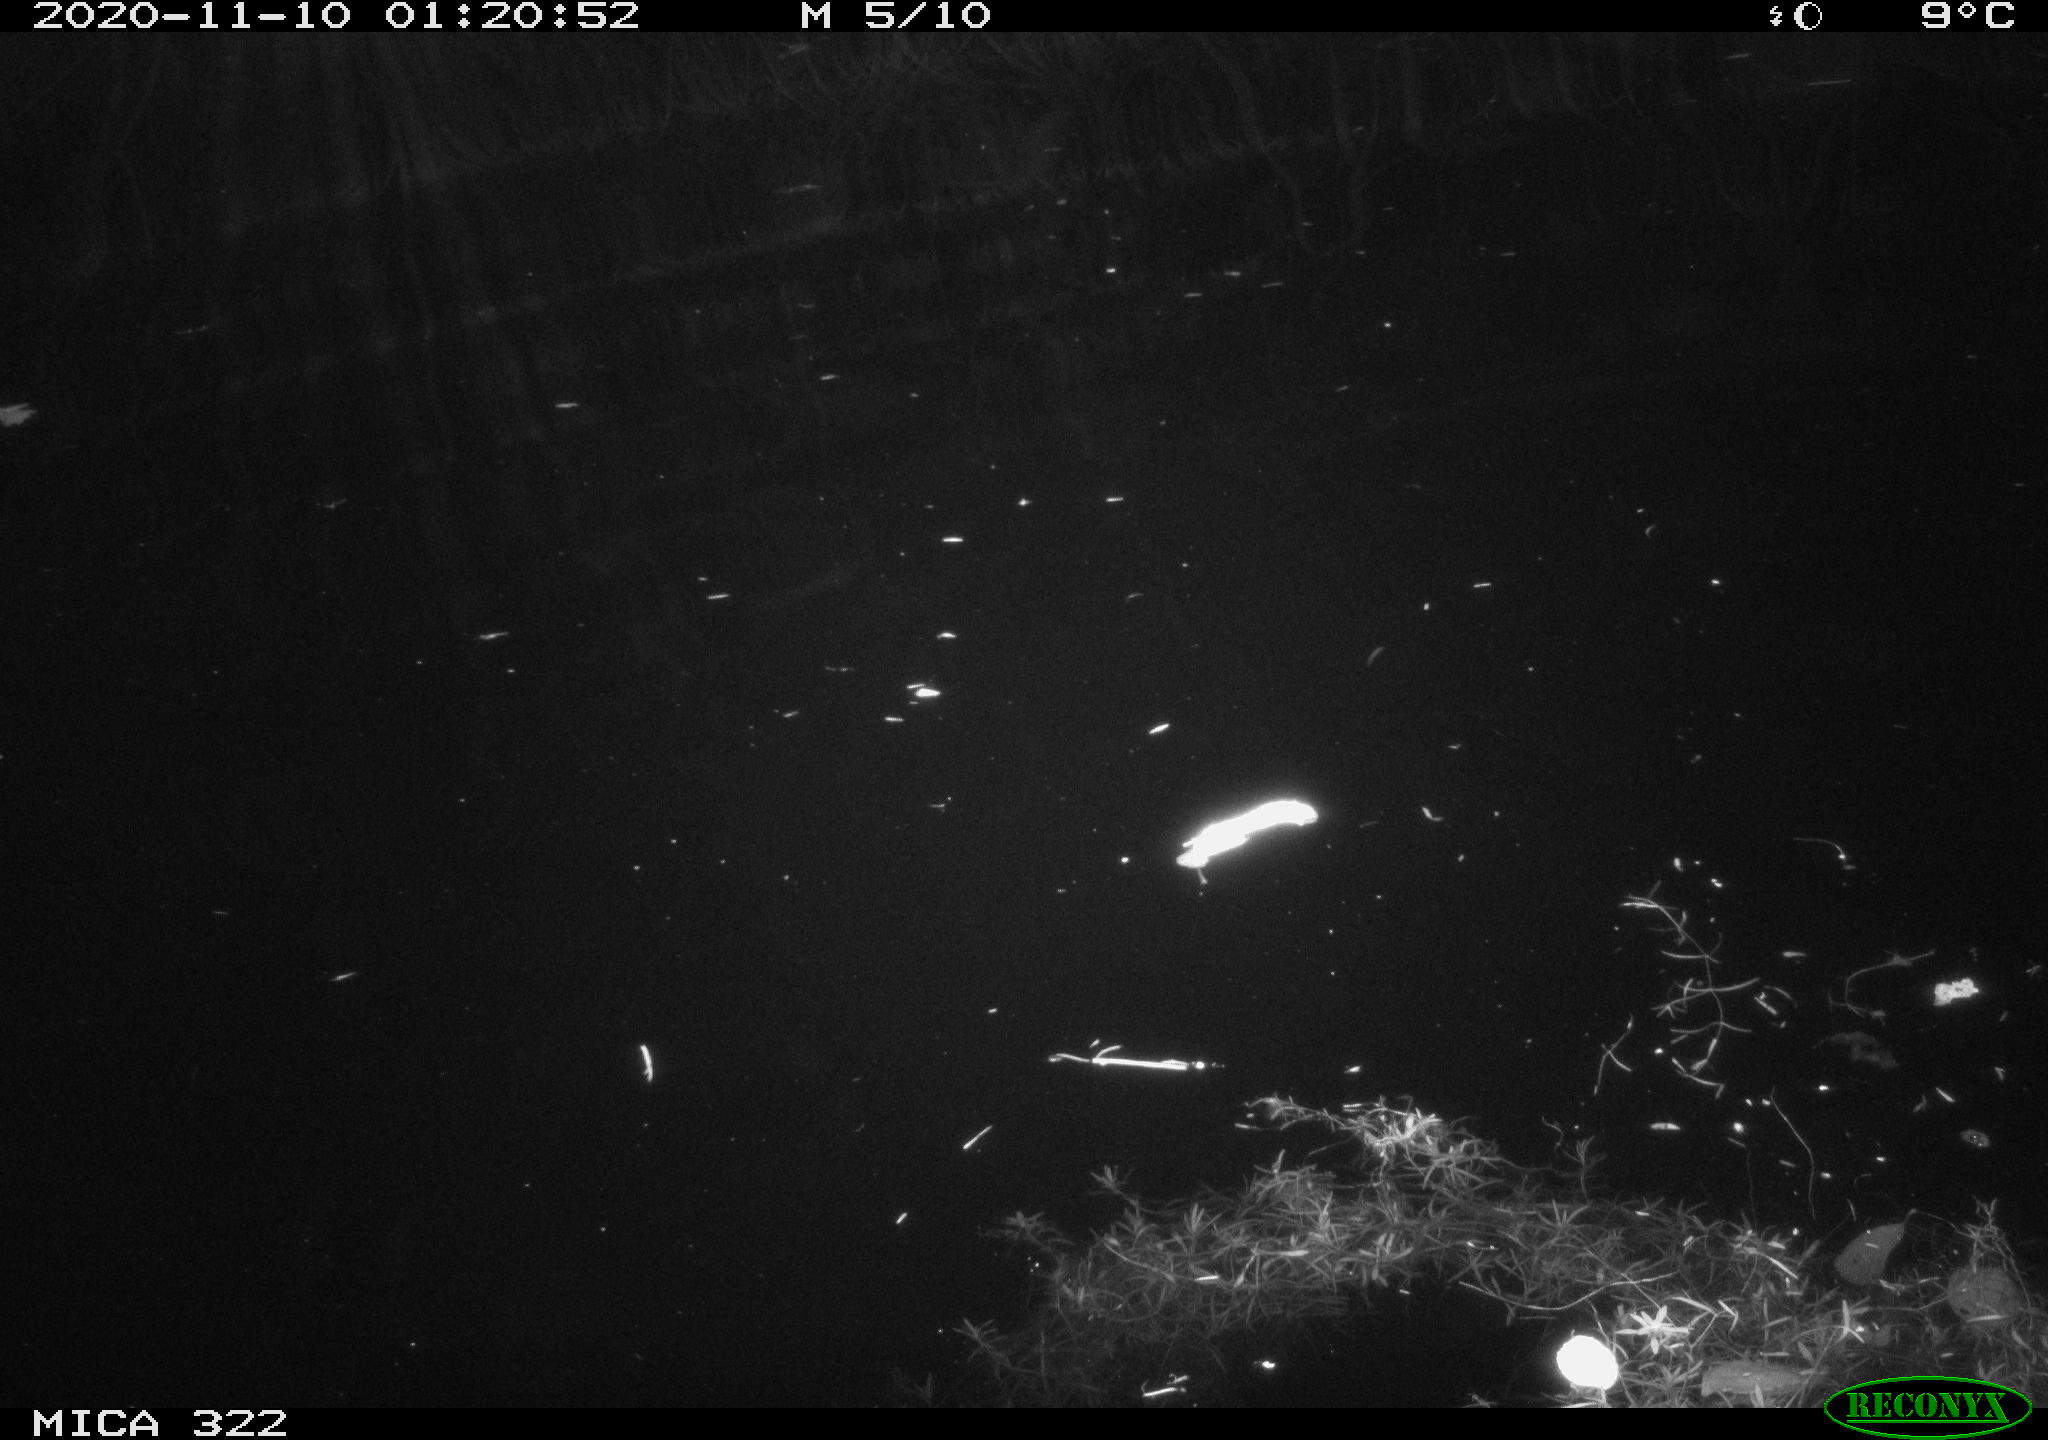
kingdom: Animalia
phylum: Chordata
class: Mammalia
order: Rodentia
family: Muridae
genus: Rattus
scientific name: Rattus norvegicus
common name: Brown rat
